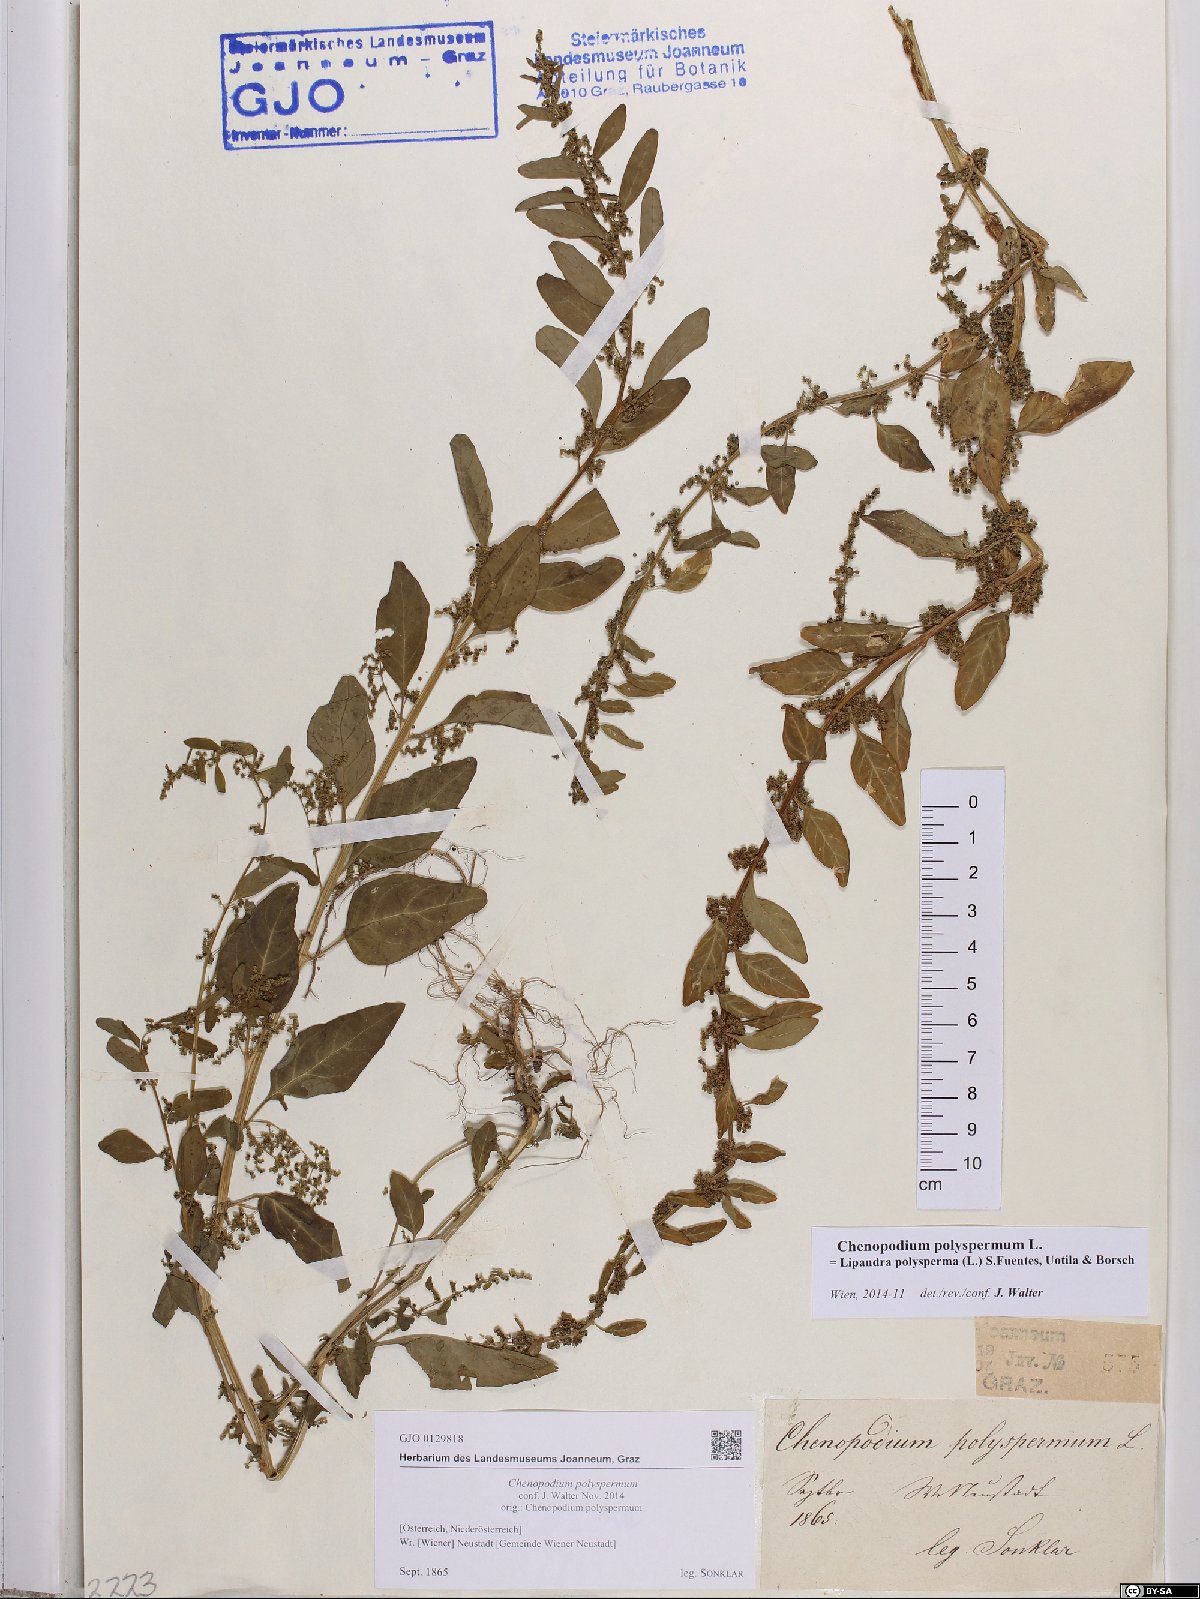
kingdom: Plantae
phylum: Tracheophyta
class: Magnoliopsida
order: Caryophyllales
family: Amaranthaceae
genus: Lipandra
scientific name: Lipandra polysperma
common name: Many-seed goosefoot
